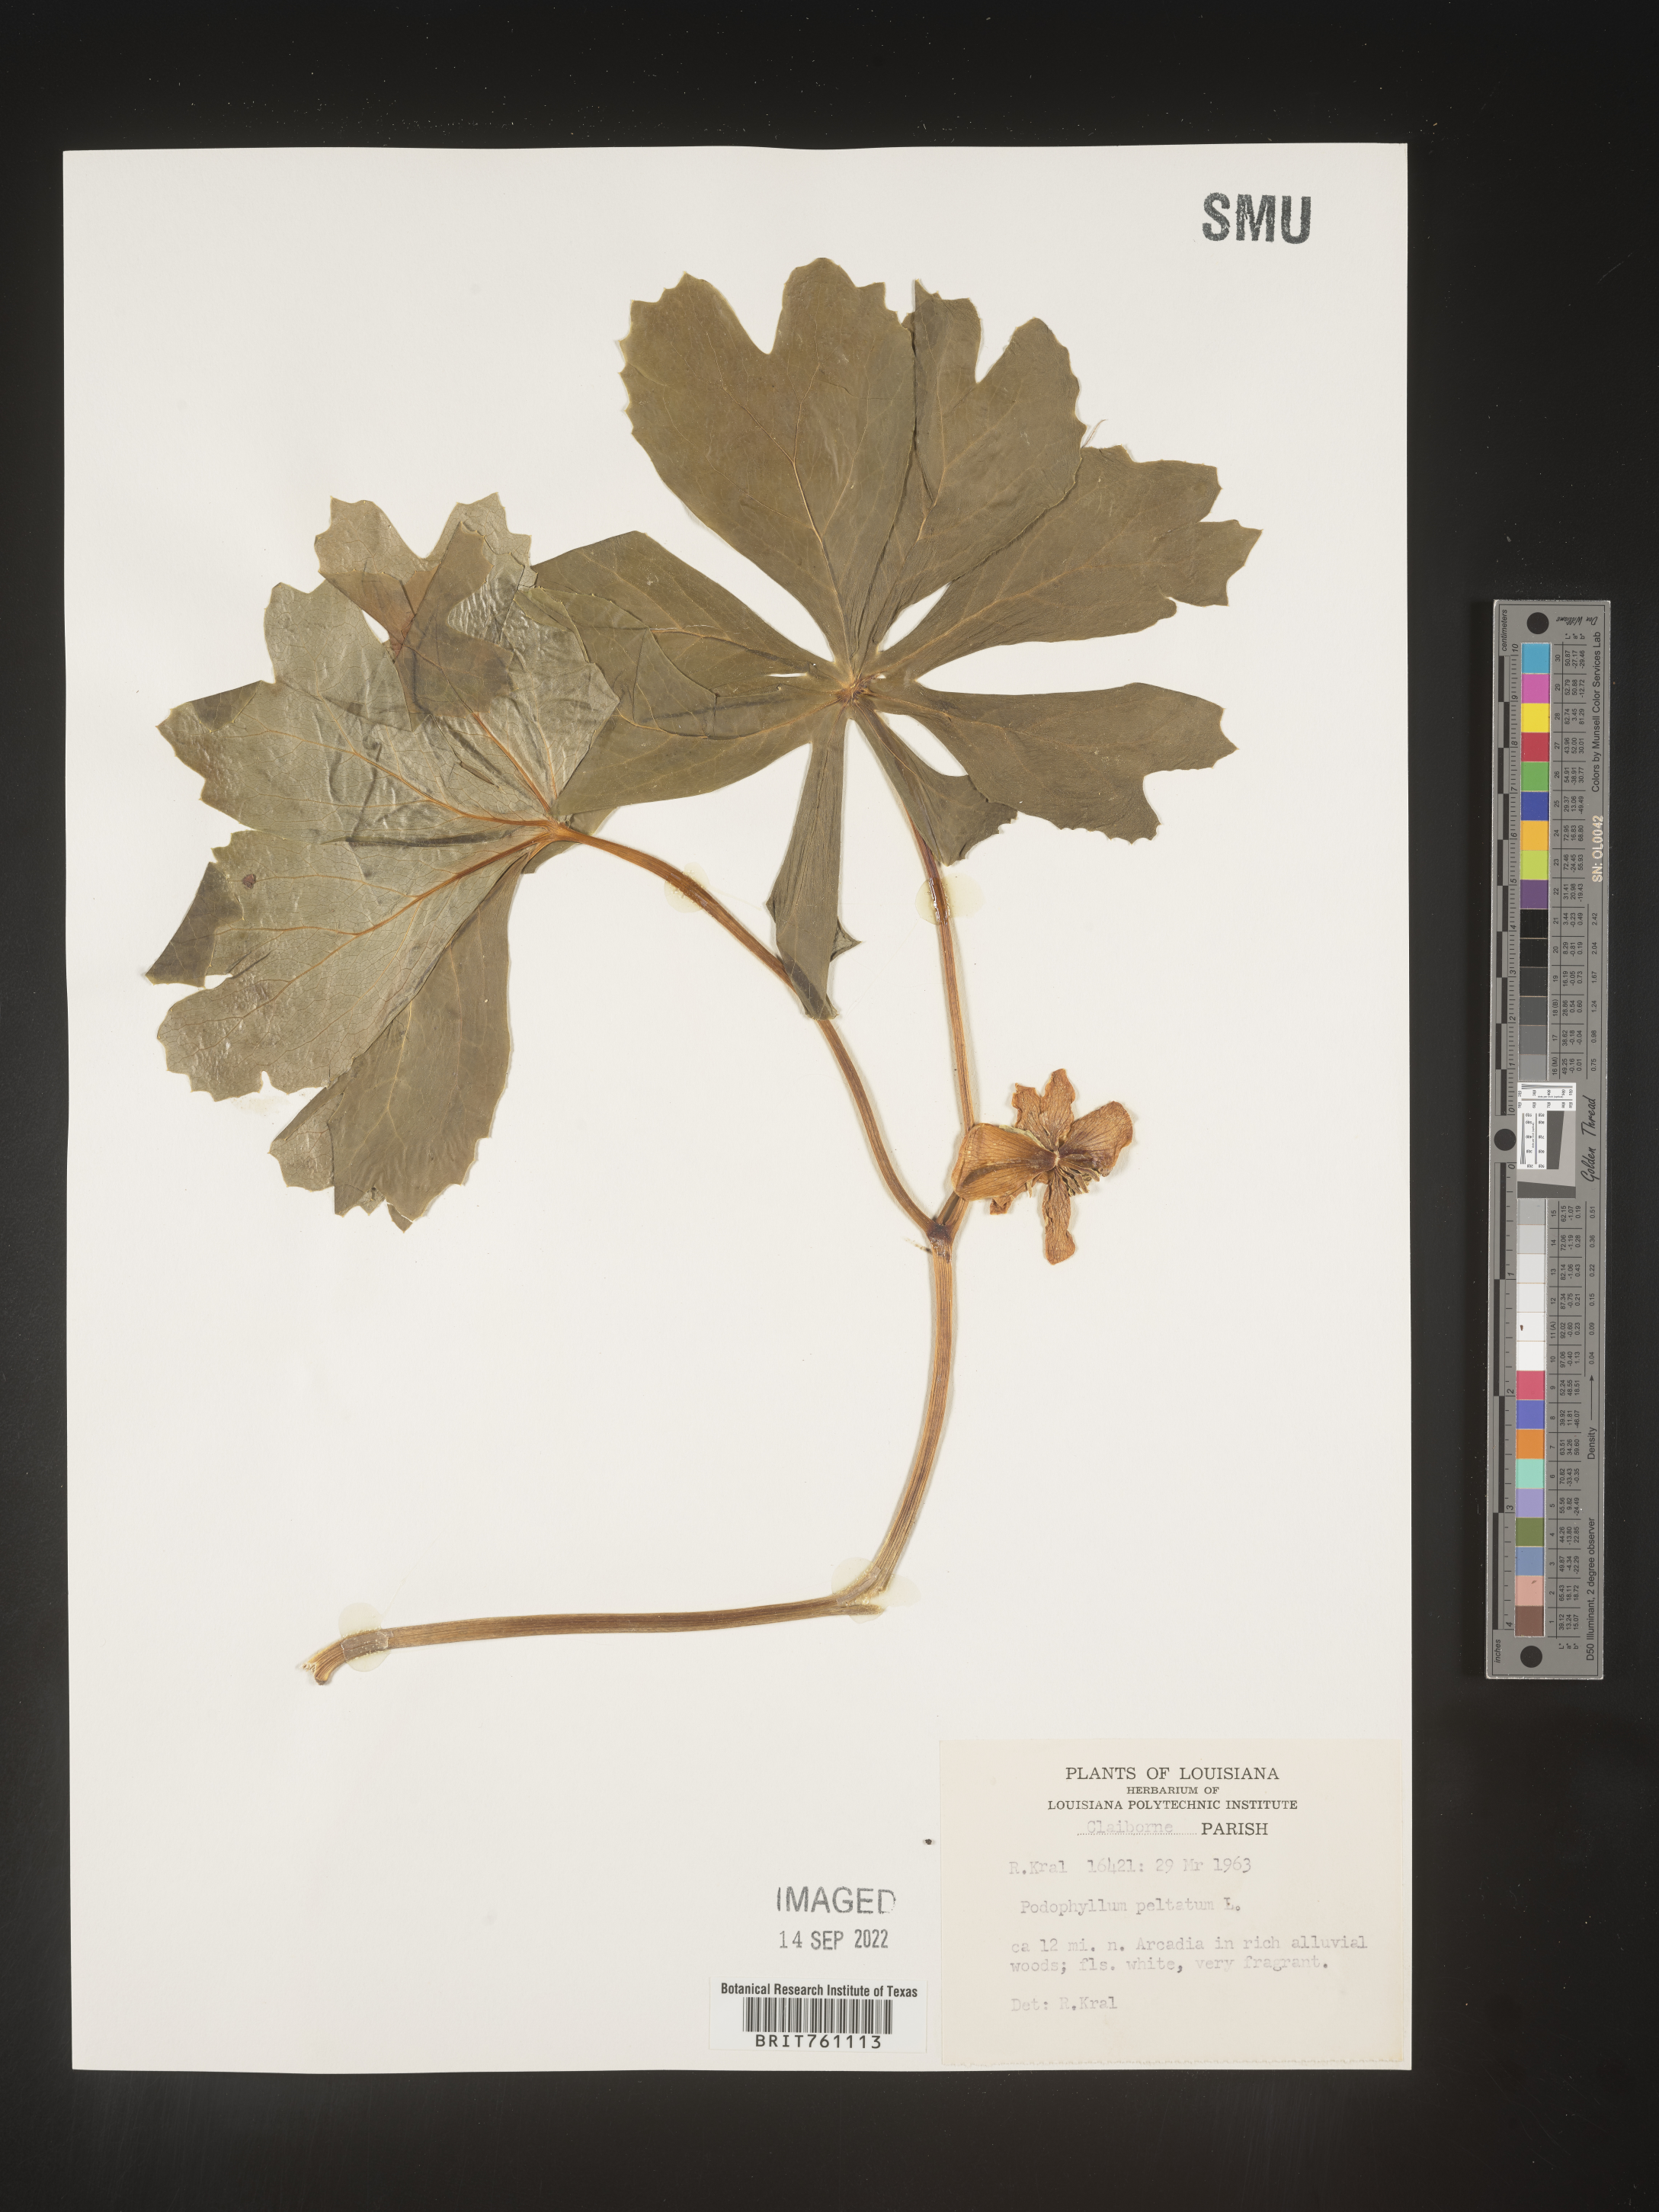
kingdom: Plantae
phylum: Tracheophyta
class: Magnoliopsida
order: Ranunculales
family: Berberidaceae
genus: Podophyllum
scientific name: Podophyllum peltatum
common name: Wild mandrake
